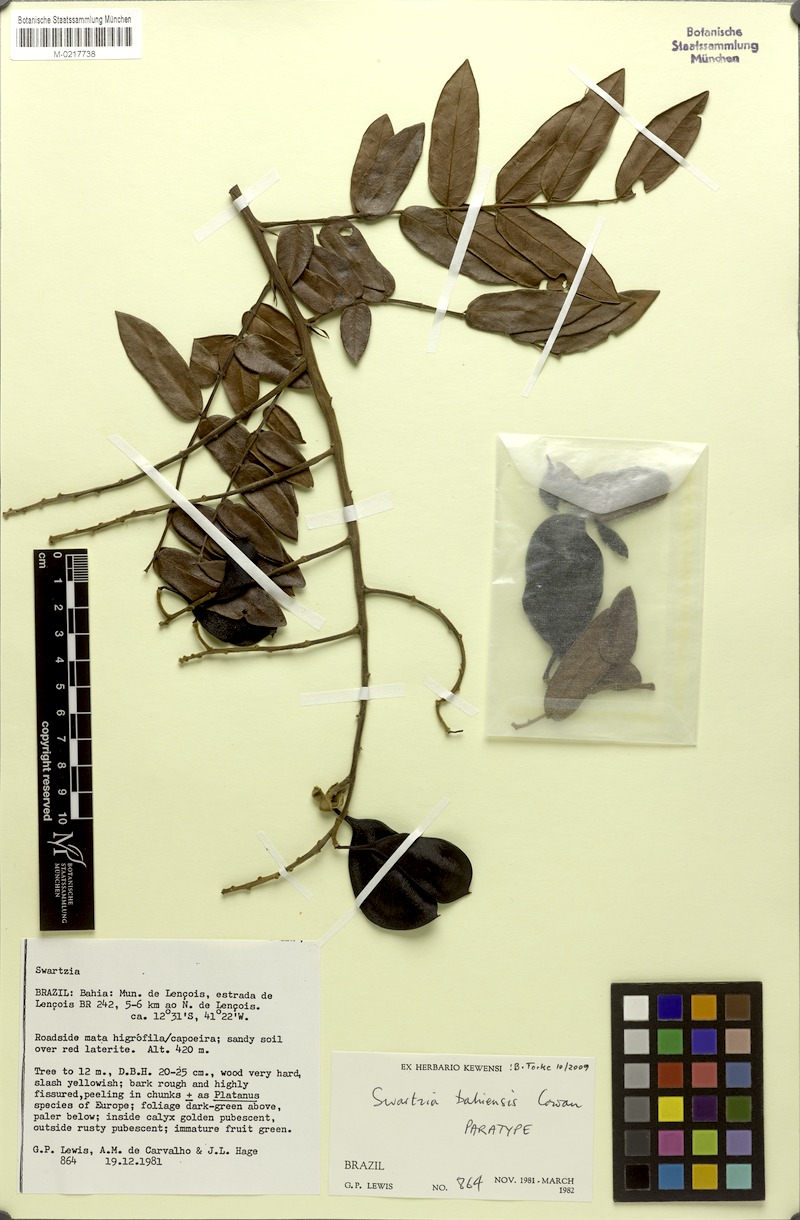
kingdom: Plantae
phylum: Tracheophyta
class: Magnoliopsida
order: Fabales
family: Fabaceae
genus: Swartzia
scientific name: Swartzia bahiensis
